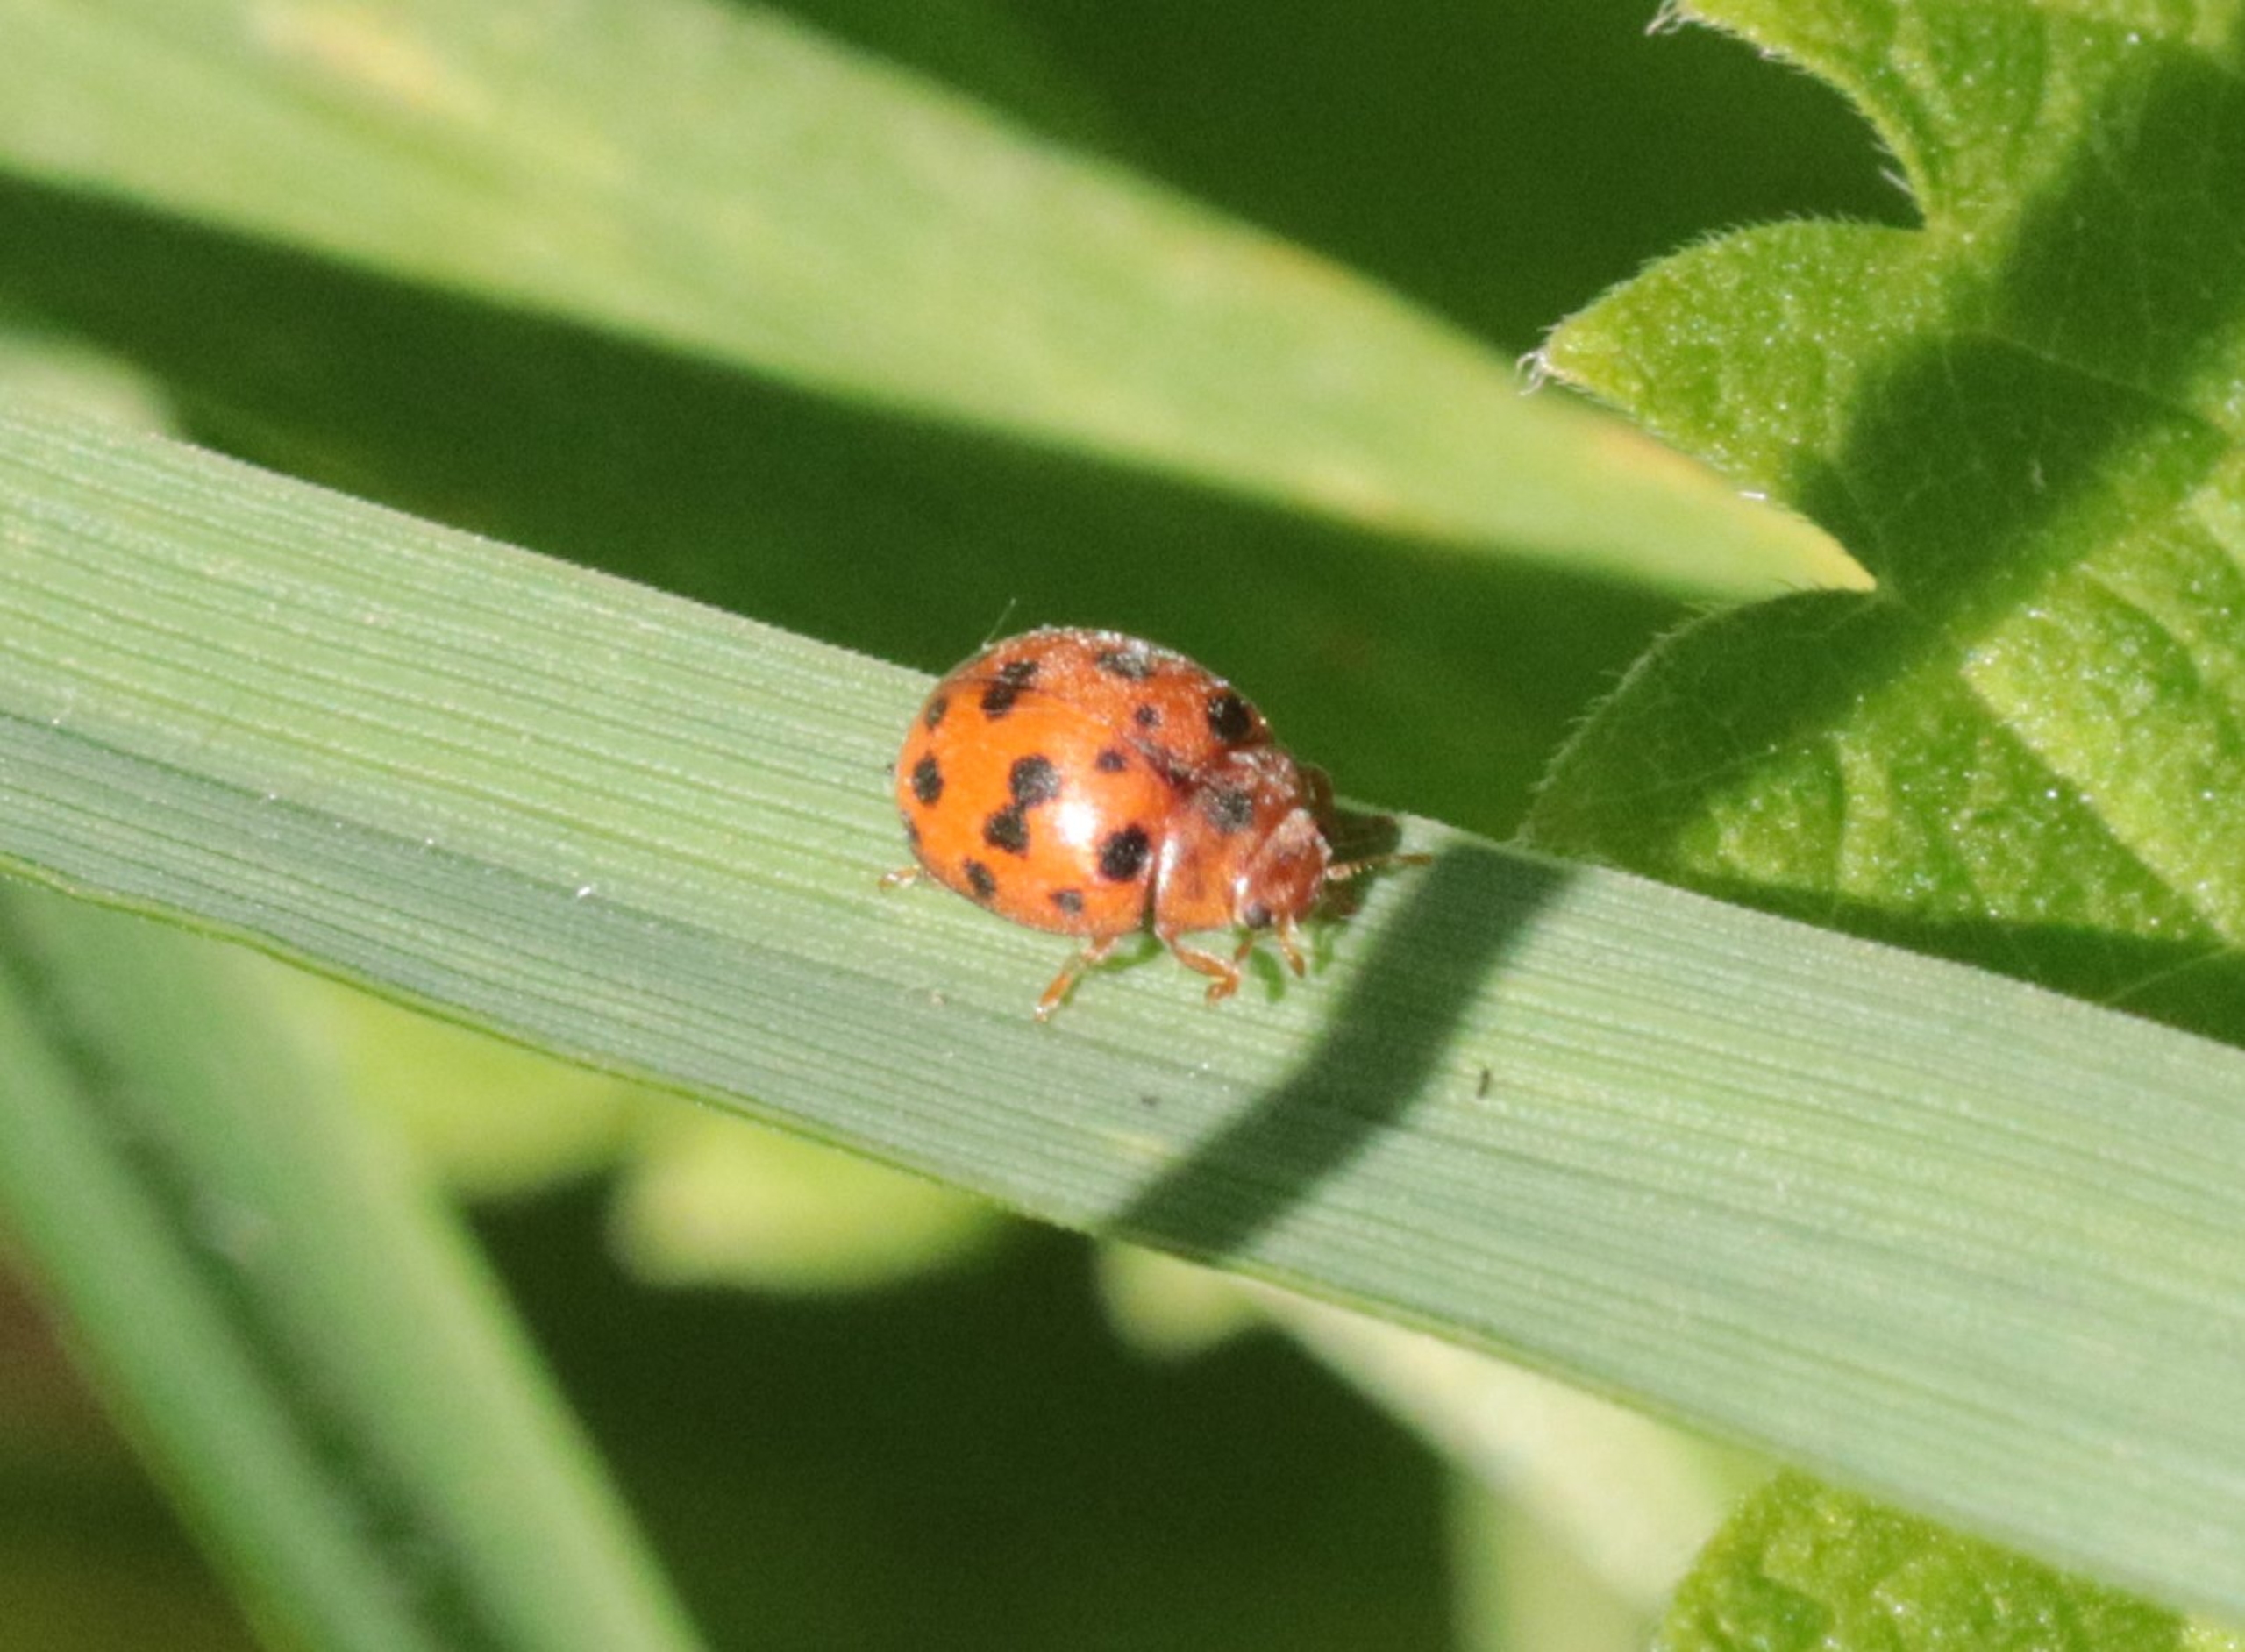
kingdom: Animalia
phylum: Arthropoda
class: Insecta
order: Coleoptera
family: Coccinellidae
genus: Subcoccinella
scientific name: Subcoccinella vigintiquatuorpunctata
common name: Fireogtyveplettet mariehøne
